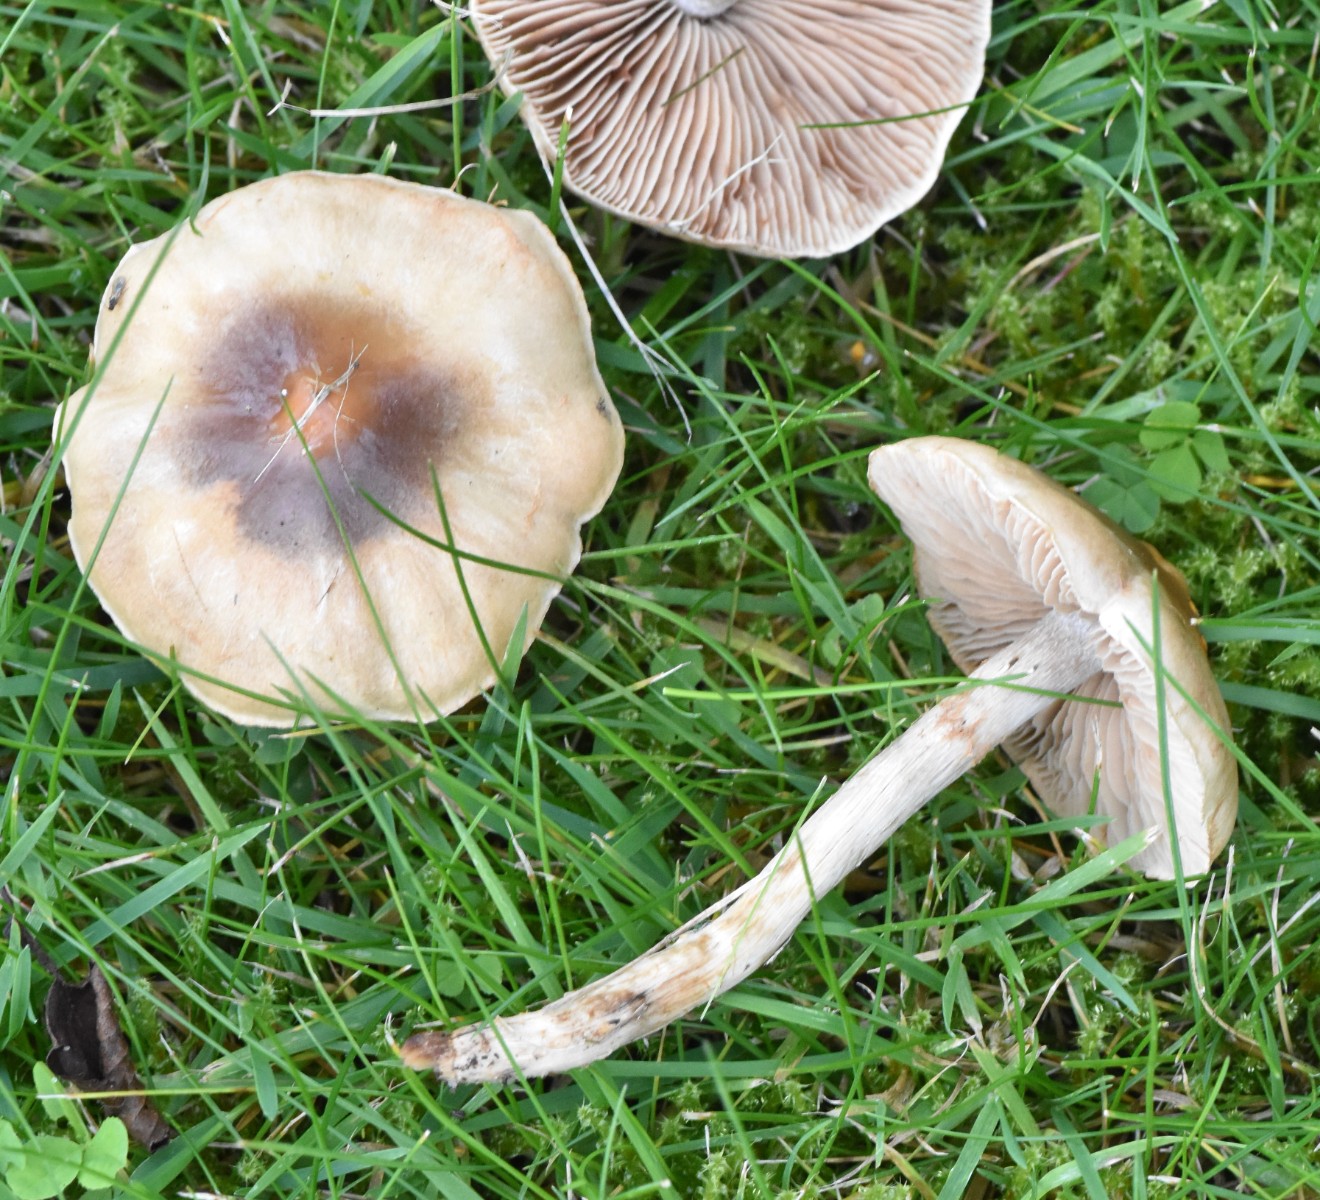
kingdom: Fungi
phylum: Basidiomycota
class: Agaricomycetes
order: Agaricales
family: Hymenogastraceae
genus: Hebeloma
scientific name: Hebeloma mesophaeum
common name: lerbrun tåreblad
